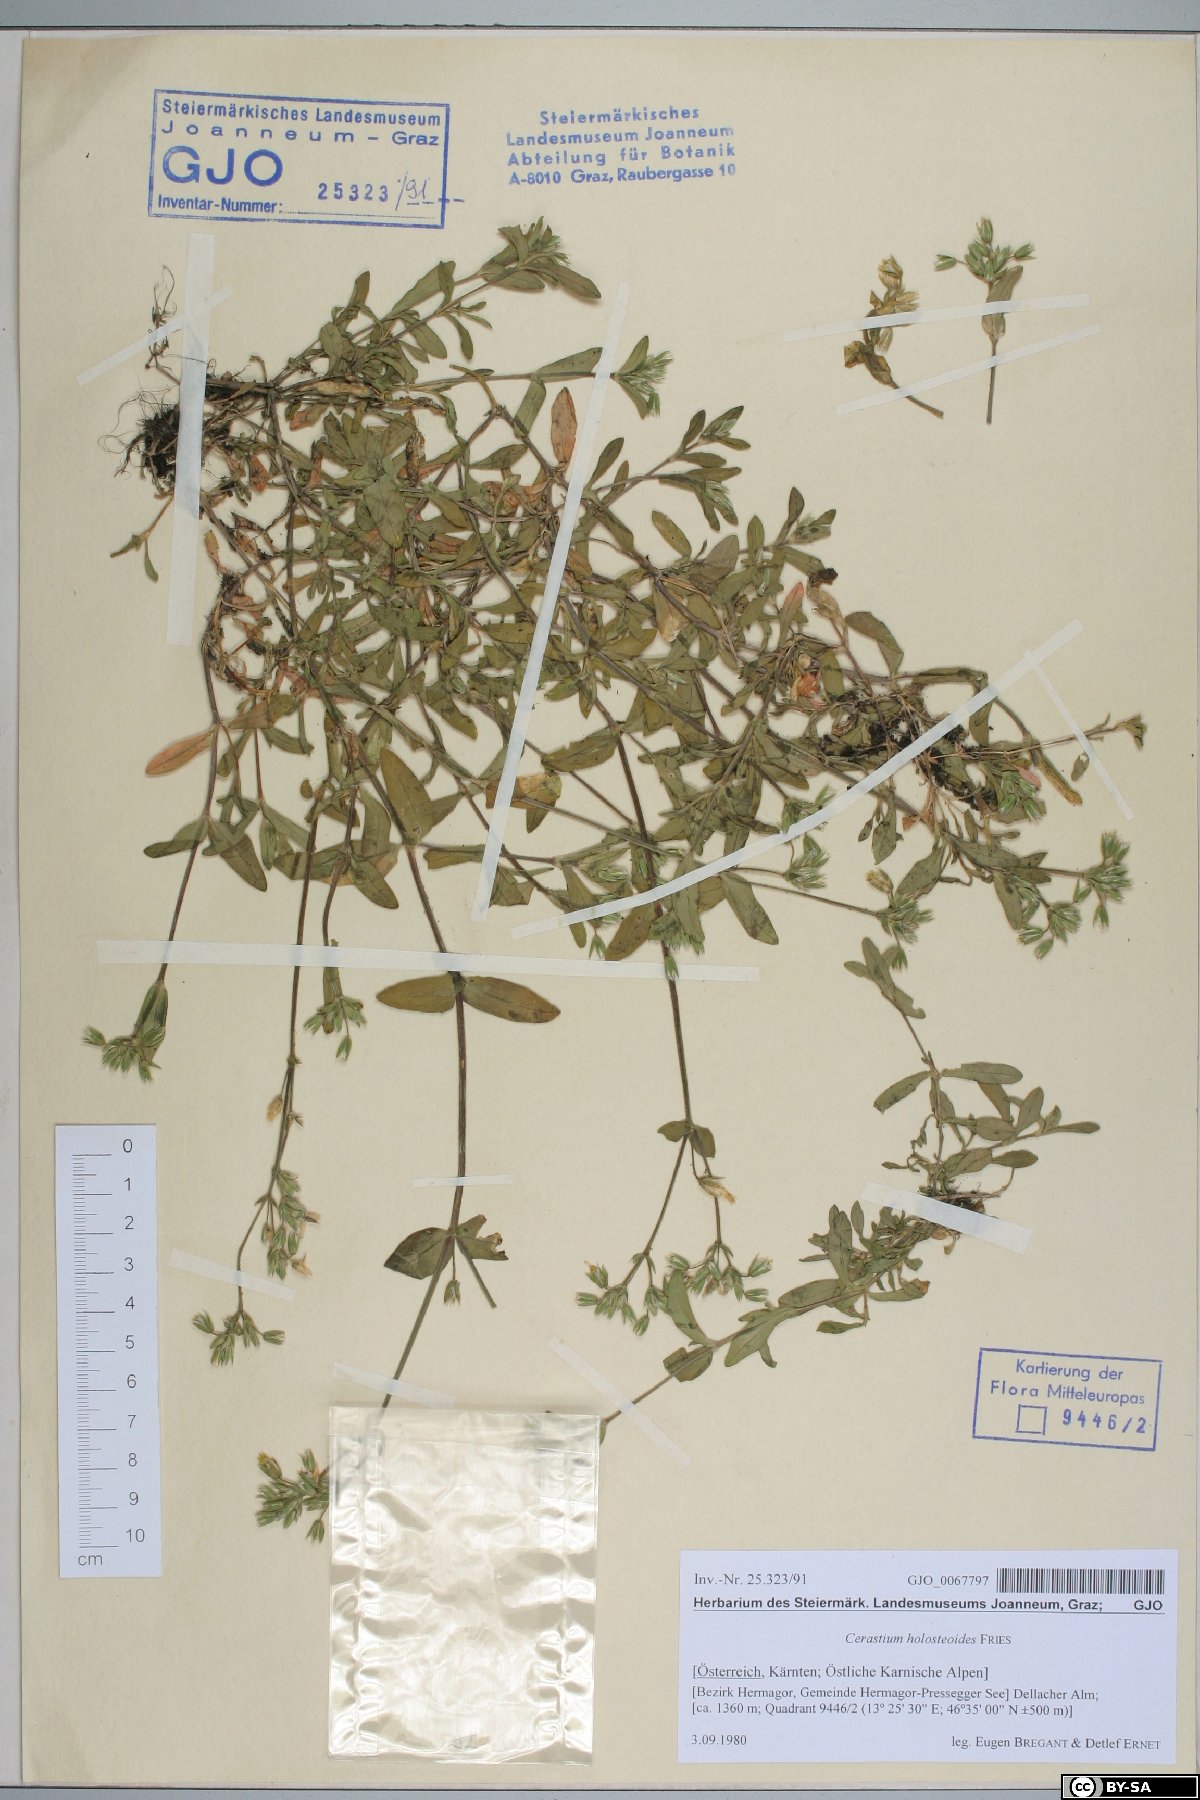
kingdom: Plantae
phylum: Tracheophyta
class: Magnoliopsida
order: Caryophyllales
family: Caryophyllaceae
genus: Cerastium
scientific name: Cerastium holosteoides
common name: Big chickweed
